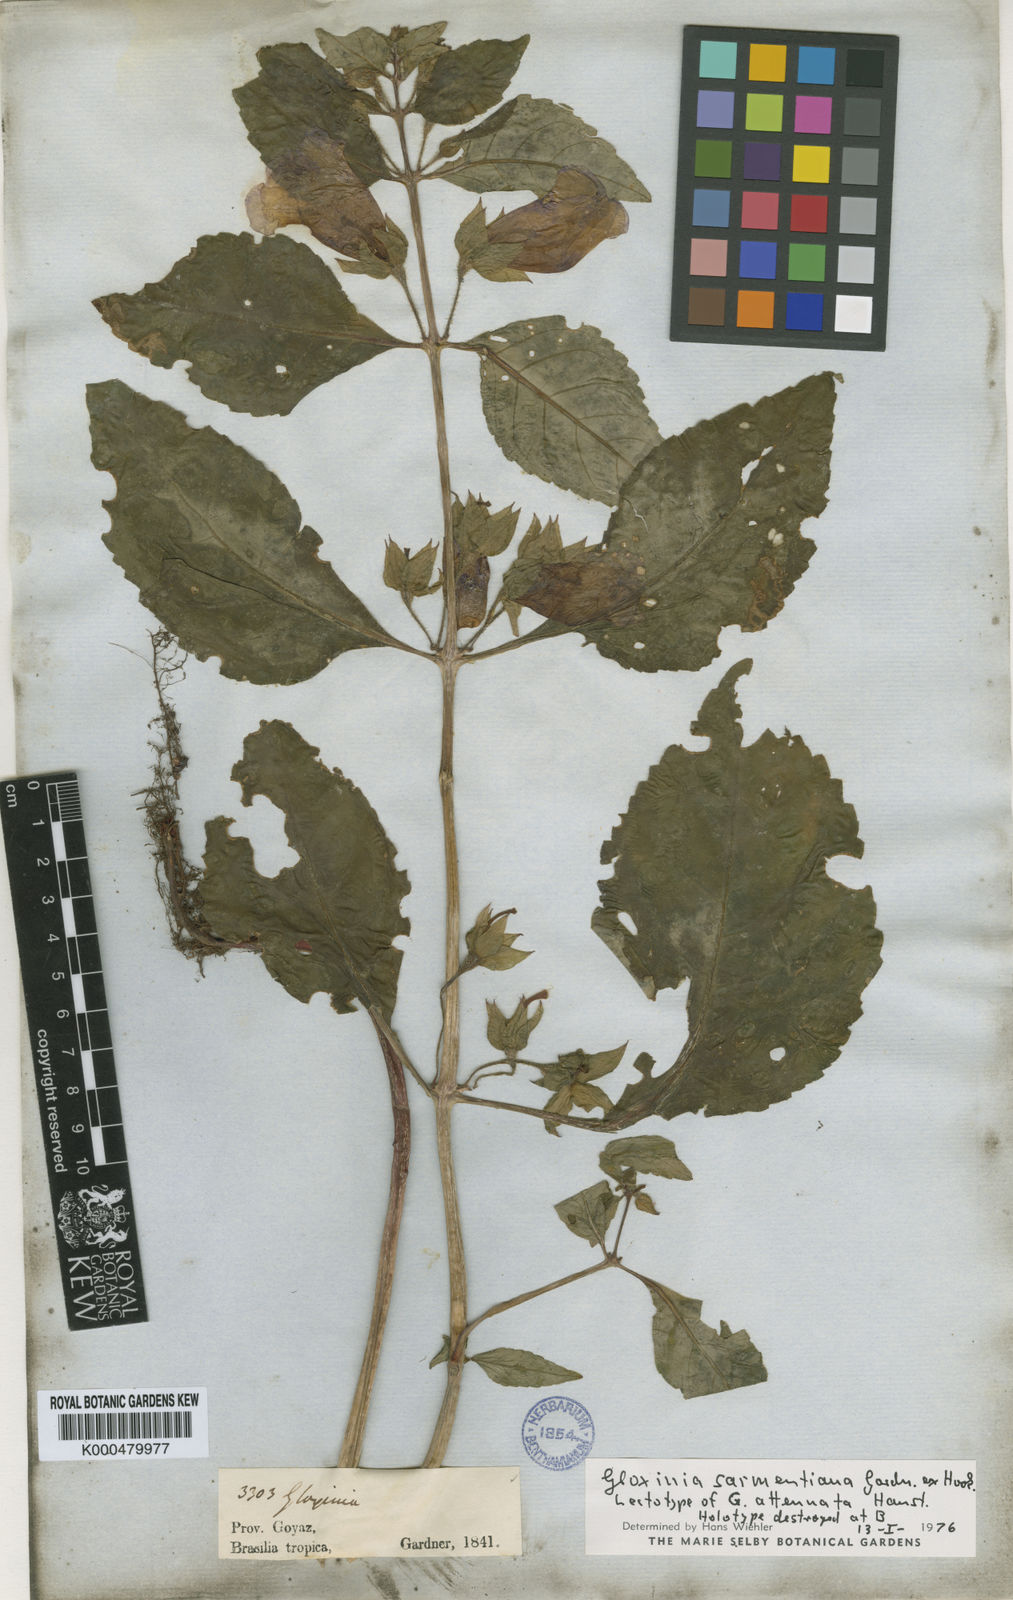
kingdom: Plantae
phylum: Tracheophyta
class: Magnoliopsida
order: Lamiales
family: Gesneriaceae
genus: Sphaerorrhiza
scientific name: Sphaerorrhiza sarmentiana
